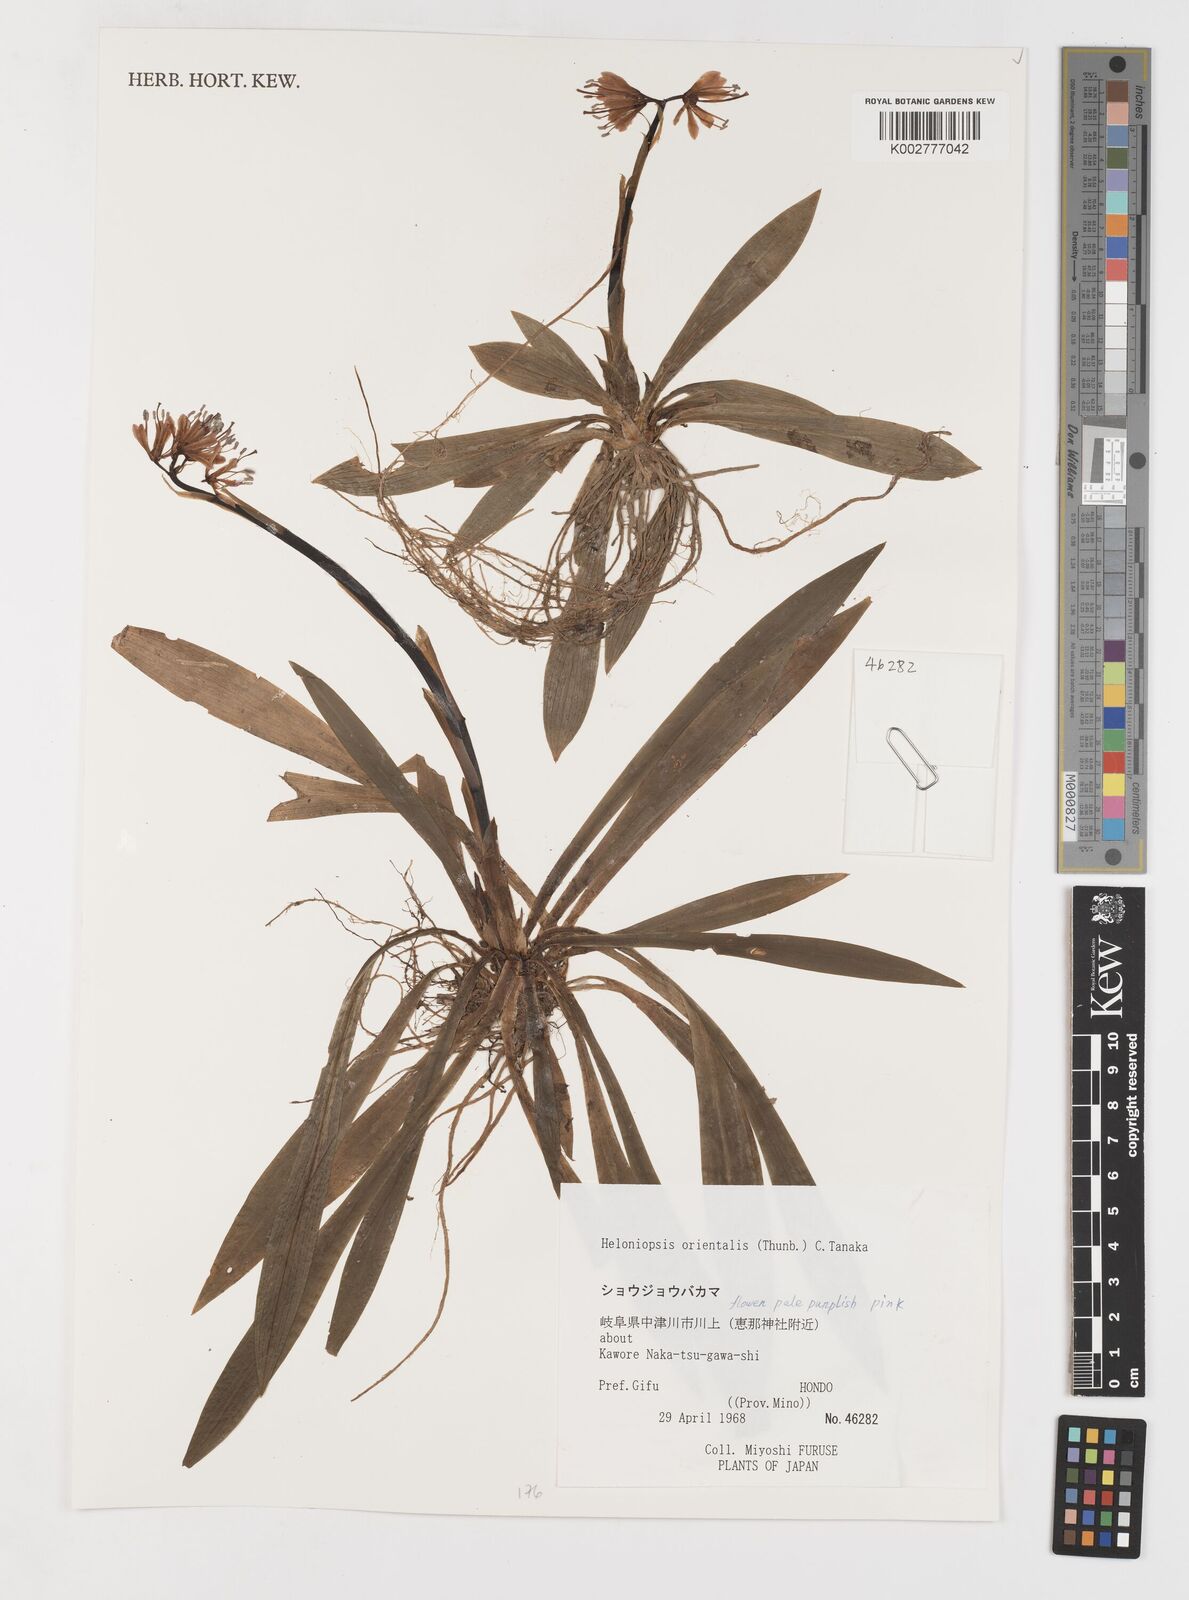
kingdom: Plantae
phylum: Tracheophyta
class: Liliopsida
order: Liliales
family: Melanthiaceae
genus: Helonias
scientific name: Helonias orientalis
